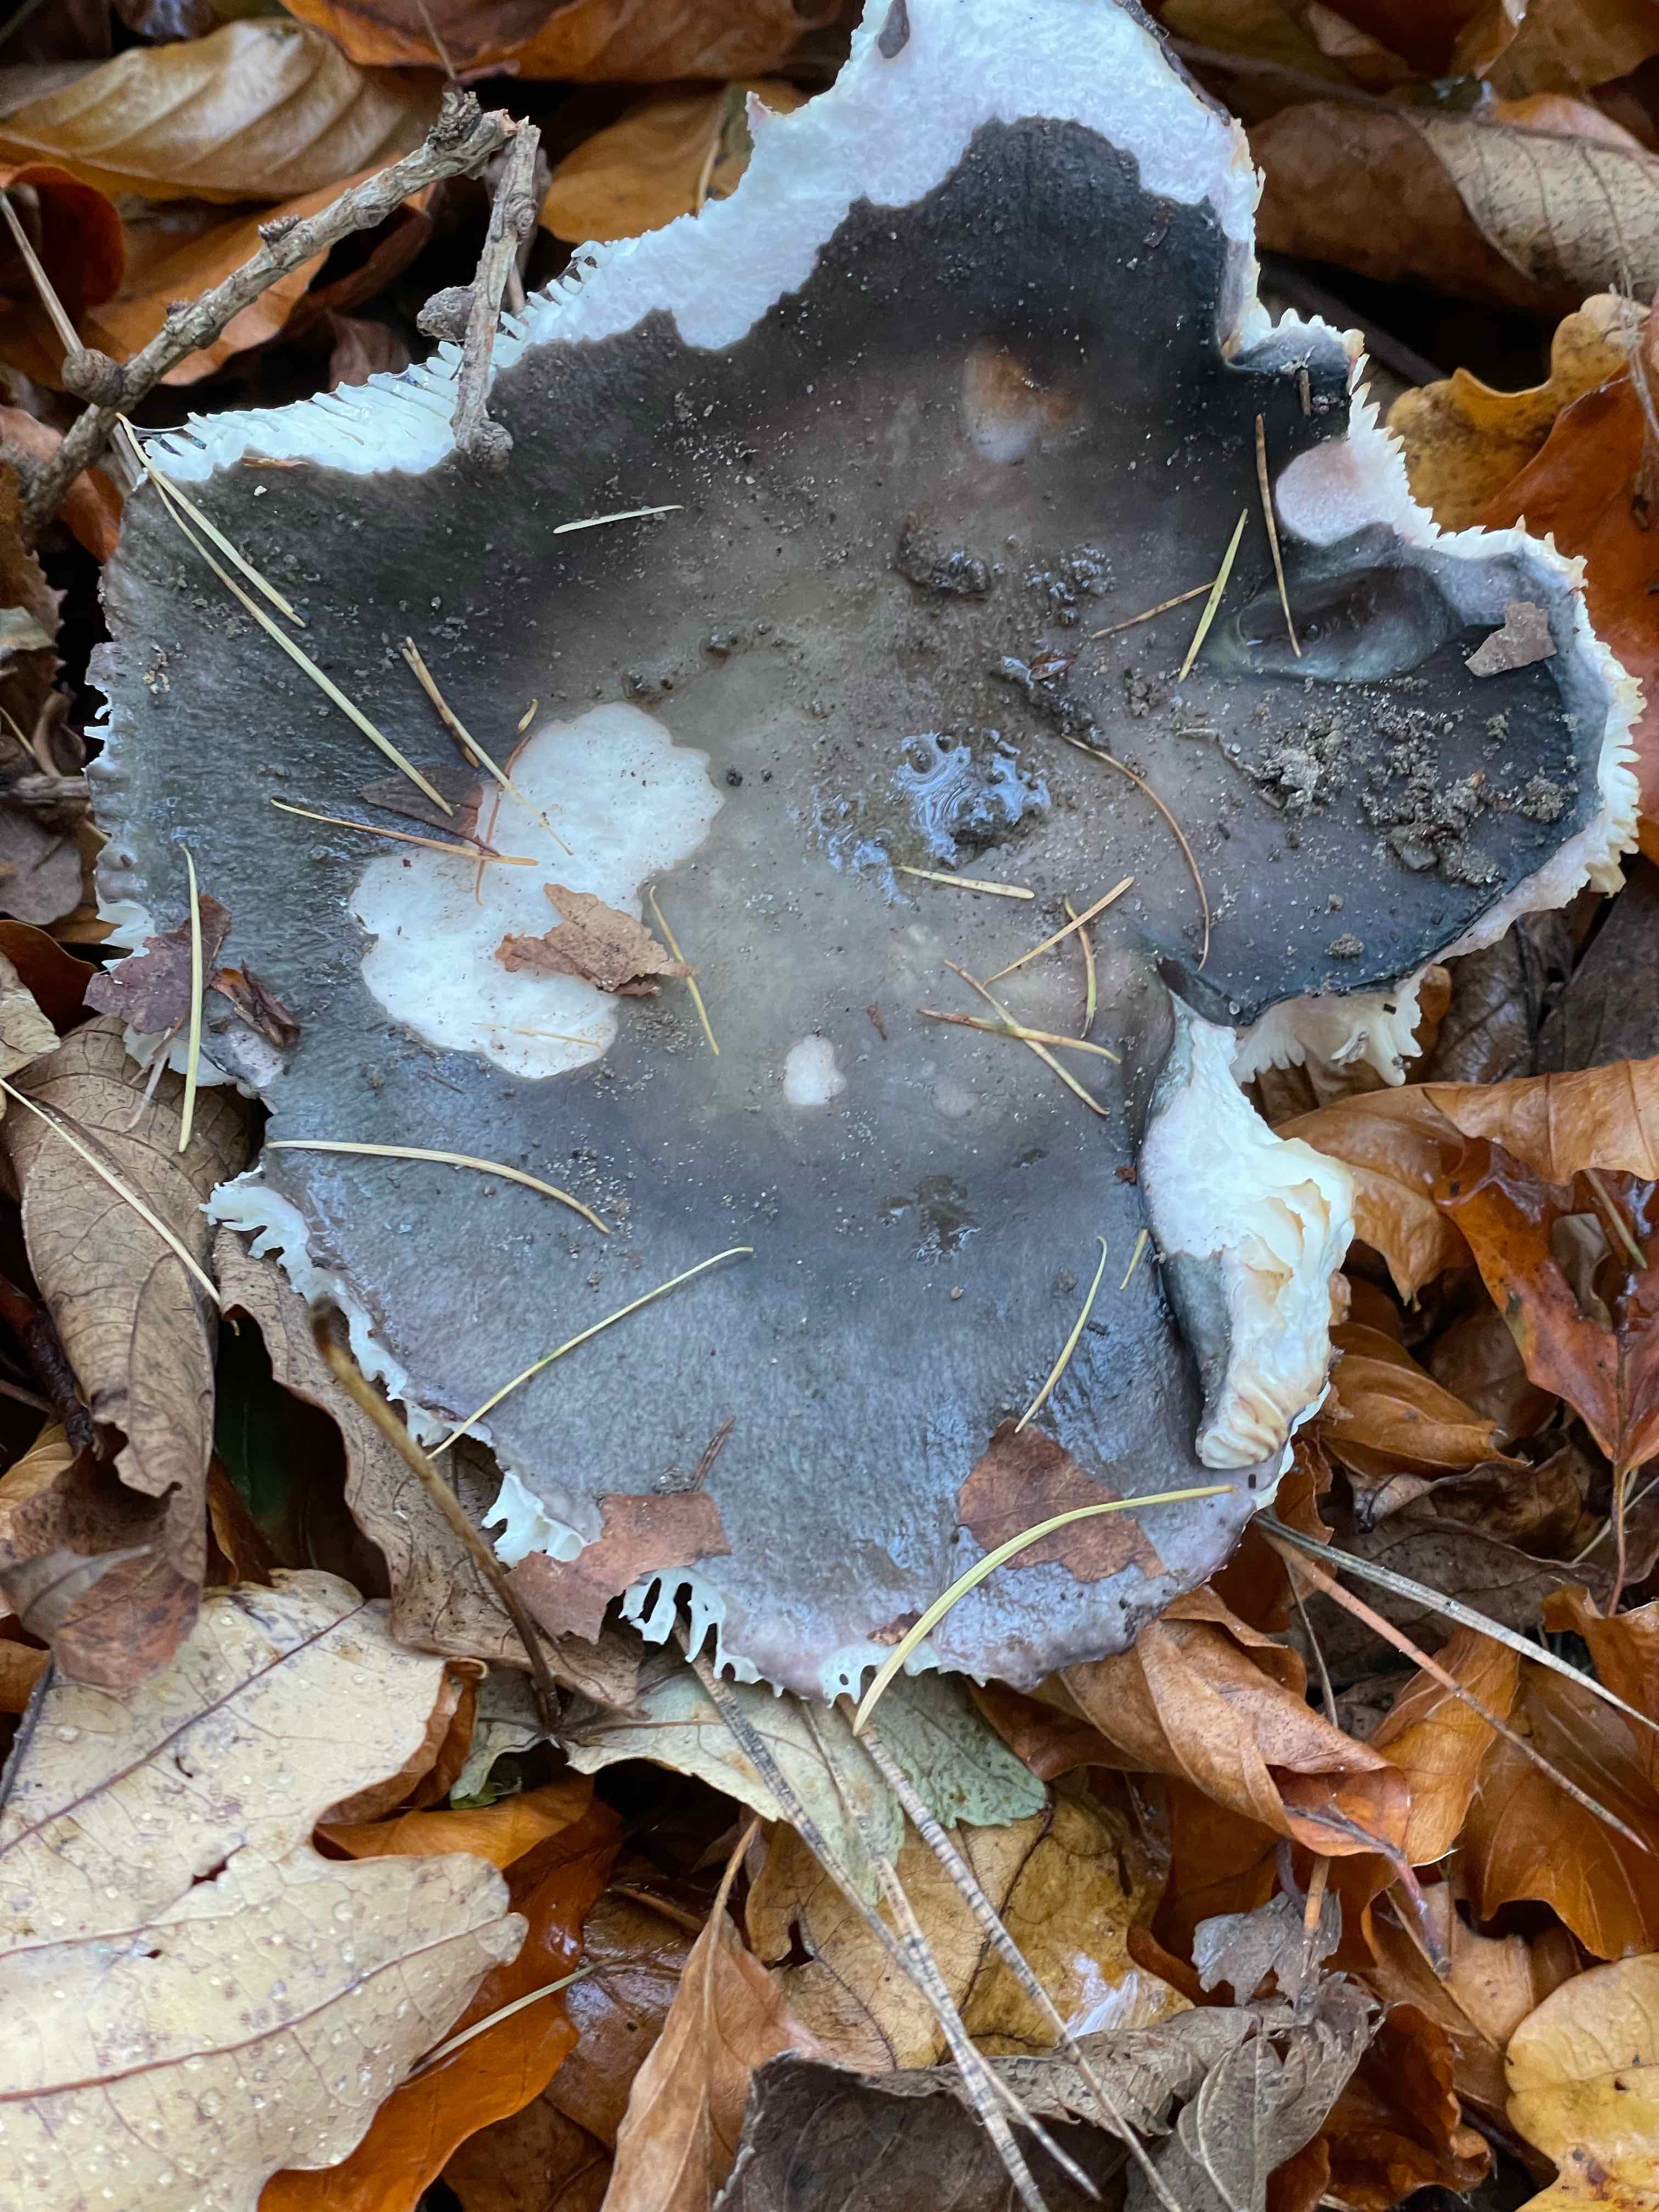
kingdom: Fungi
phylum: Basidiomycota
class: Agaricomycetes
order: Russulales
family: Russulaceae
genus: Russula
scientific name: Russula cyanoxantha
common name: broget skørhat
